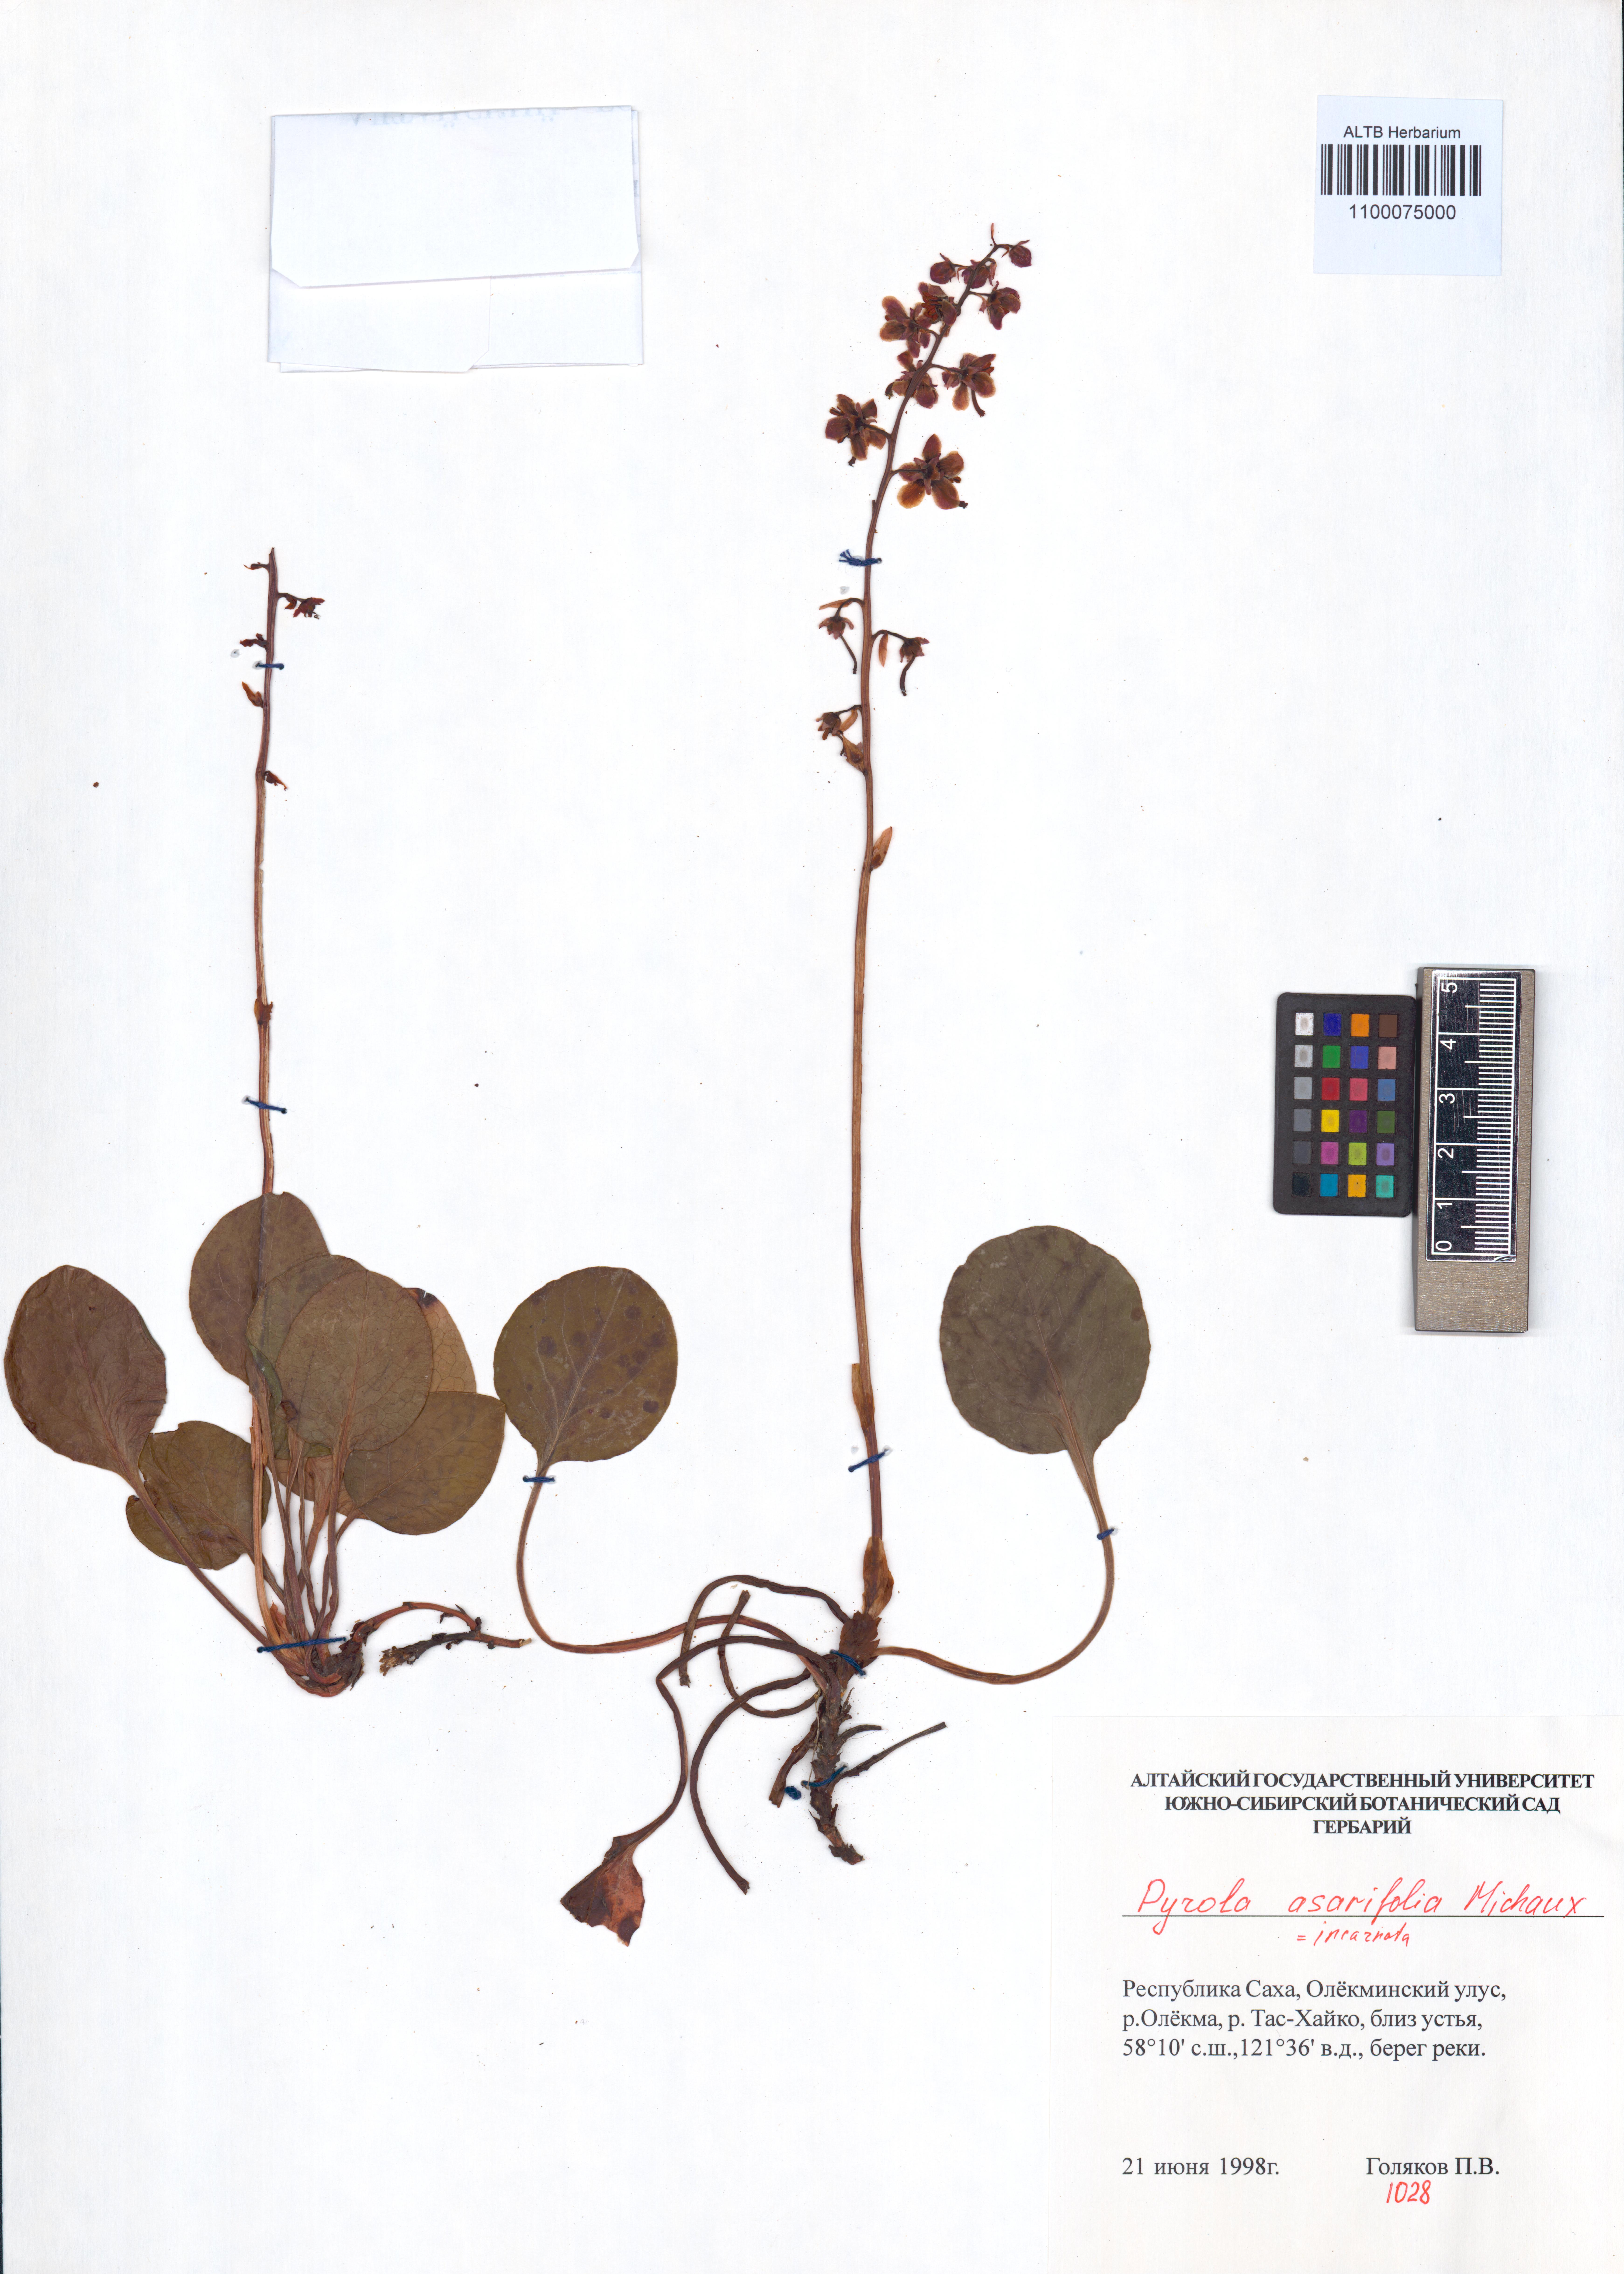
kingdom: Plantae
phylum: Tracheophyta
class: Magnoliopsida
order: Ericales
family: Ericaceae
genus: Pyrola
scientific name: Pyrola asarifolia
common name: Bog wintergreen
